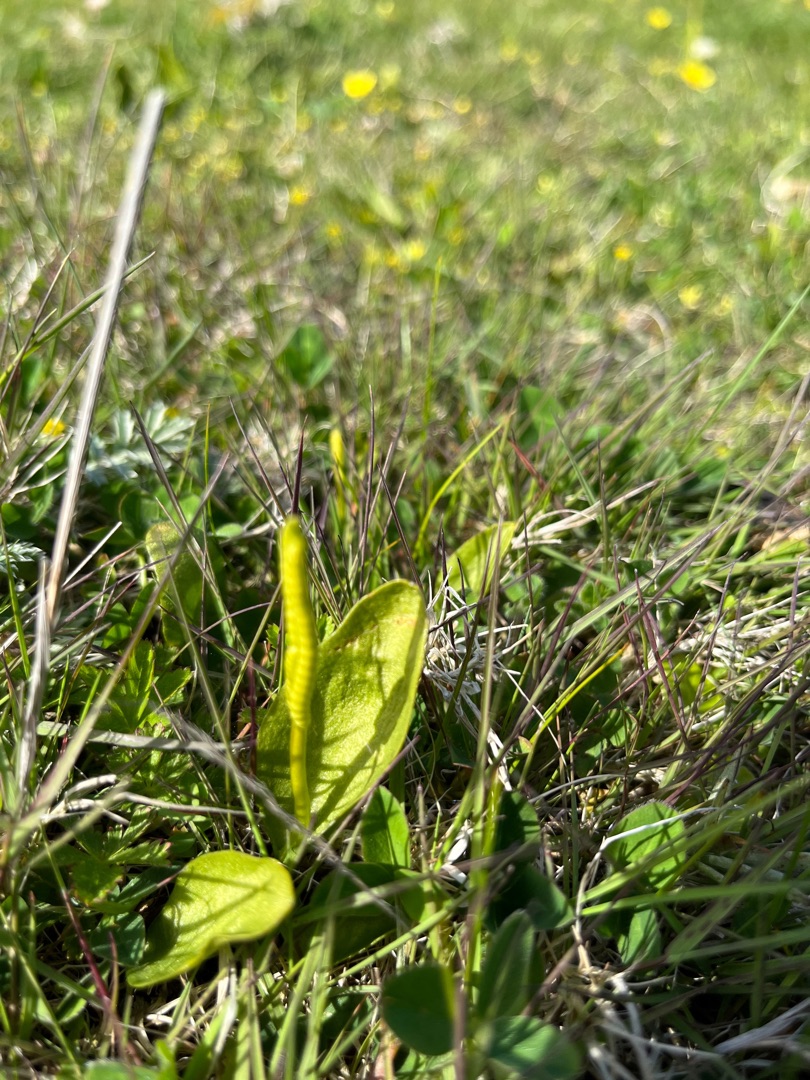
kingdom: Plantae
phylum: Tracheophyta
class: Polypodiopsida
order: Ophioglossales
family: Ophioglossaceae
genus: Ophioglossum
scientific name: Ophioglossum vulgatum
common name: Slangetunge
